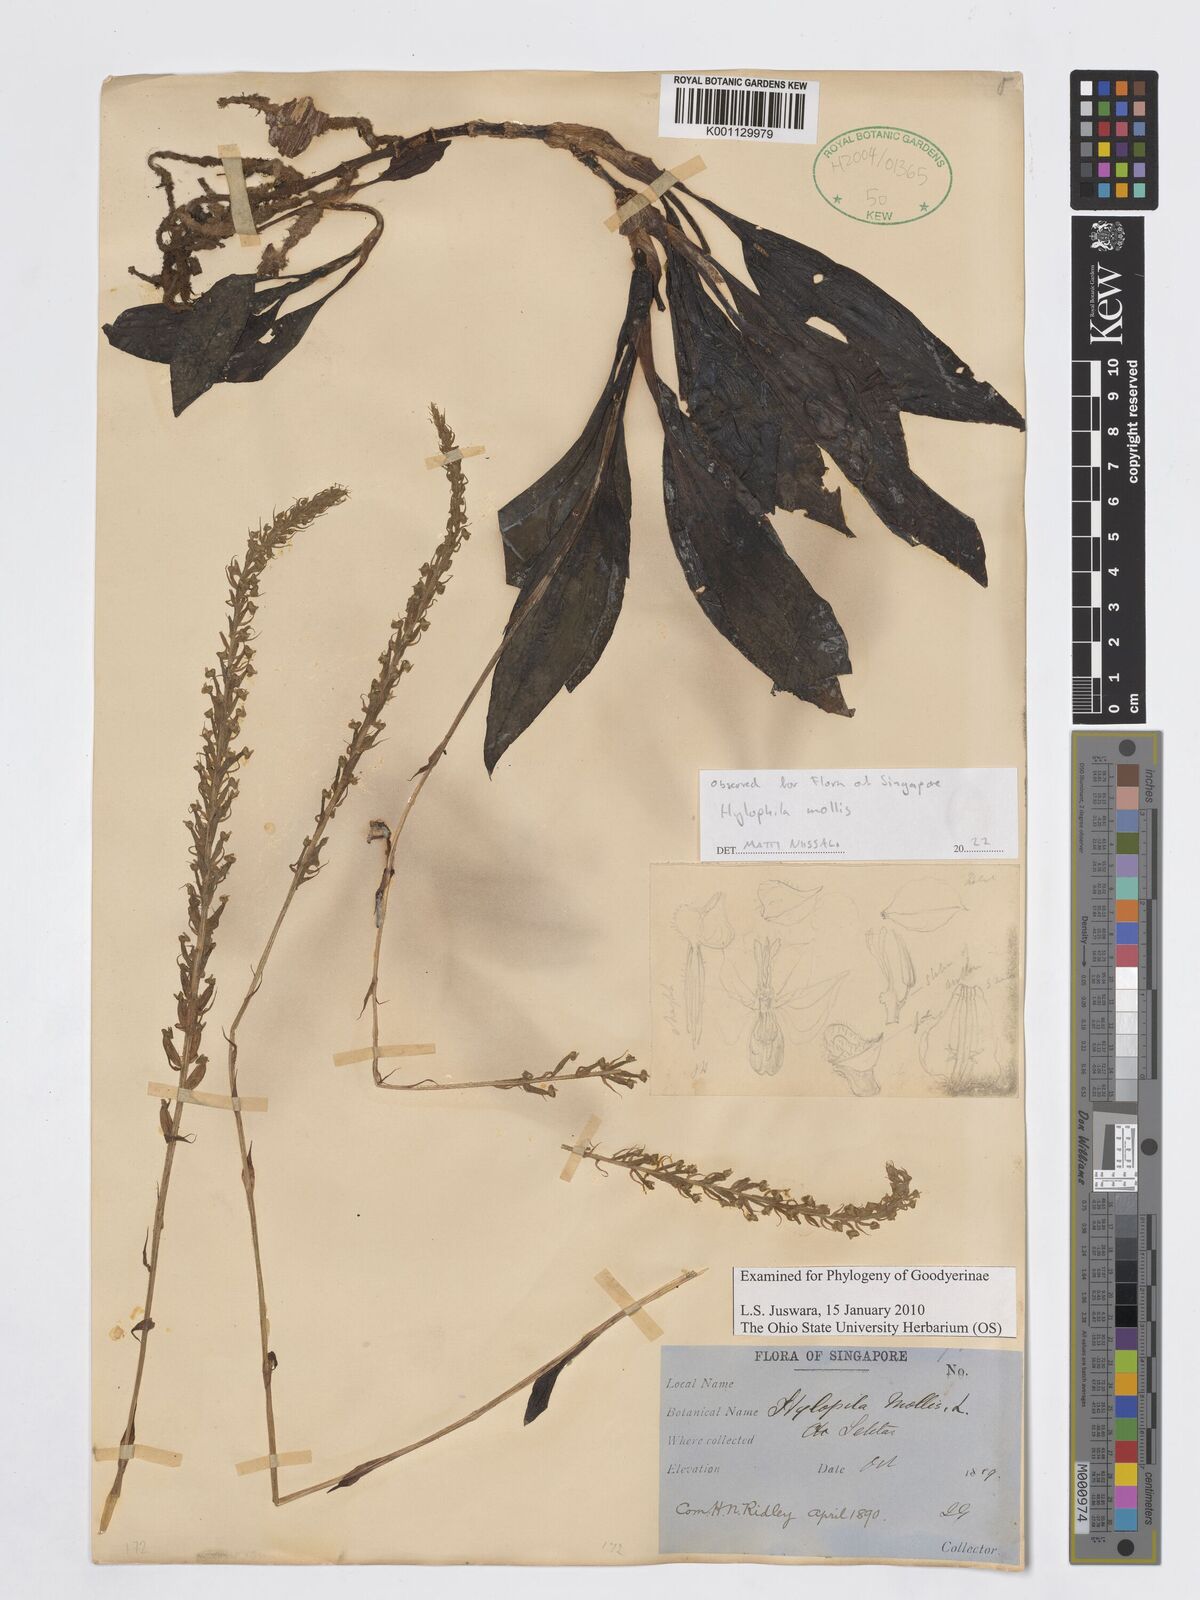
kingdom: Plantae
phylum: Tracheophyta
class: Liliopsida
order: Asparagales
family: Orchidaceae
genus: Hylophila
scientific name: Hylophila mollis
